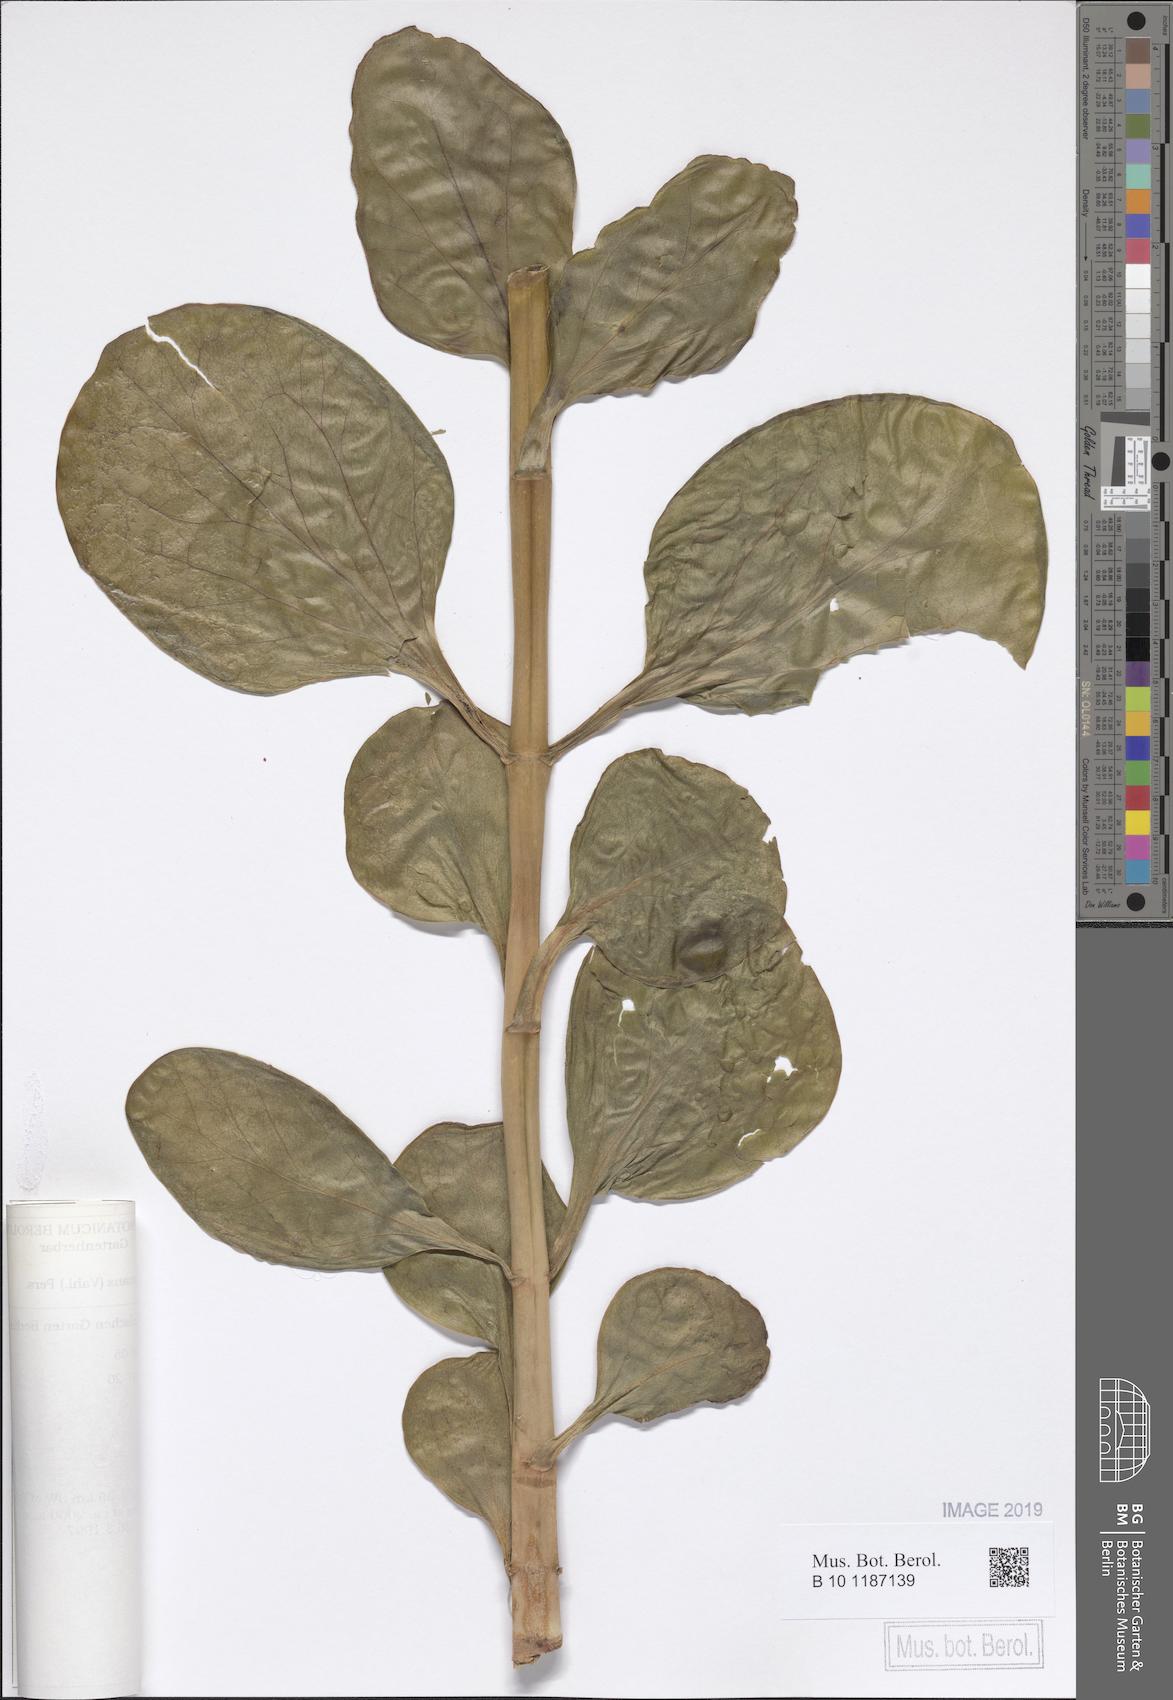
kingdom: Plantae
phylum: Tracheophyta
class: Magnoliopsida
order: Saxifragales
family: Crassulaceae
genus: Kalanchoe
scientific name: Kalanchoe deficiens
